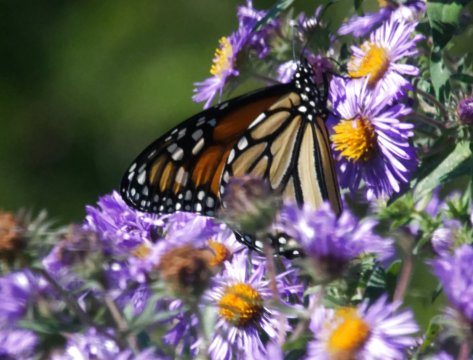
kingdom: Animalia
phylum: Arthropoda
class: Insecta
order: Lepidoptera
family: Nymphalidae
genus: Danaus
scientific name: Danaus plexippus
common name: Monarch
